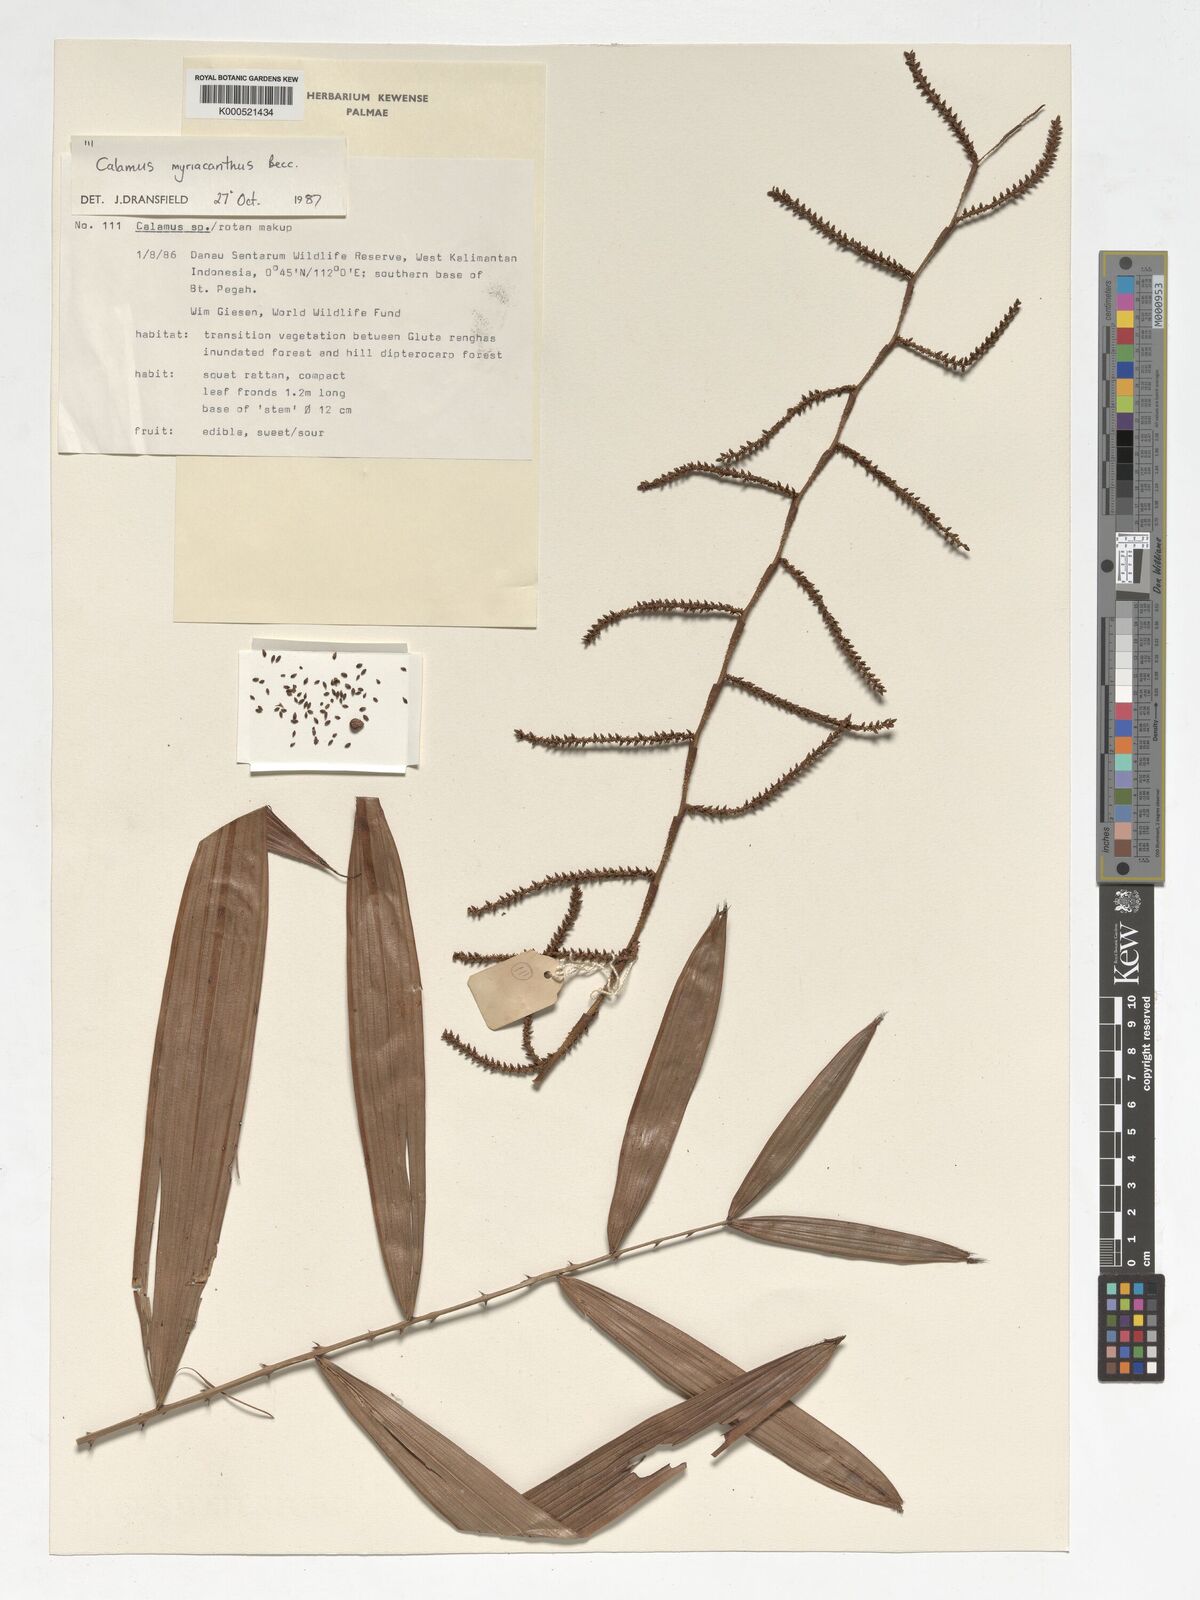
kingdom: Plantae
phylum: Tracheophyta
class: Liliopsida
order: Arecales
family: Arecaceae
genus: Calamus
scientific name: Calamus myriacanthus
